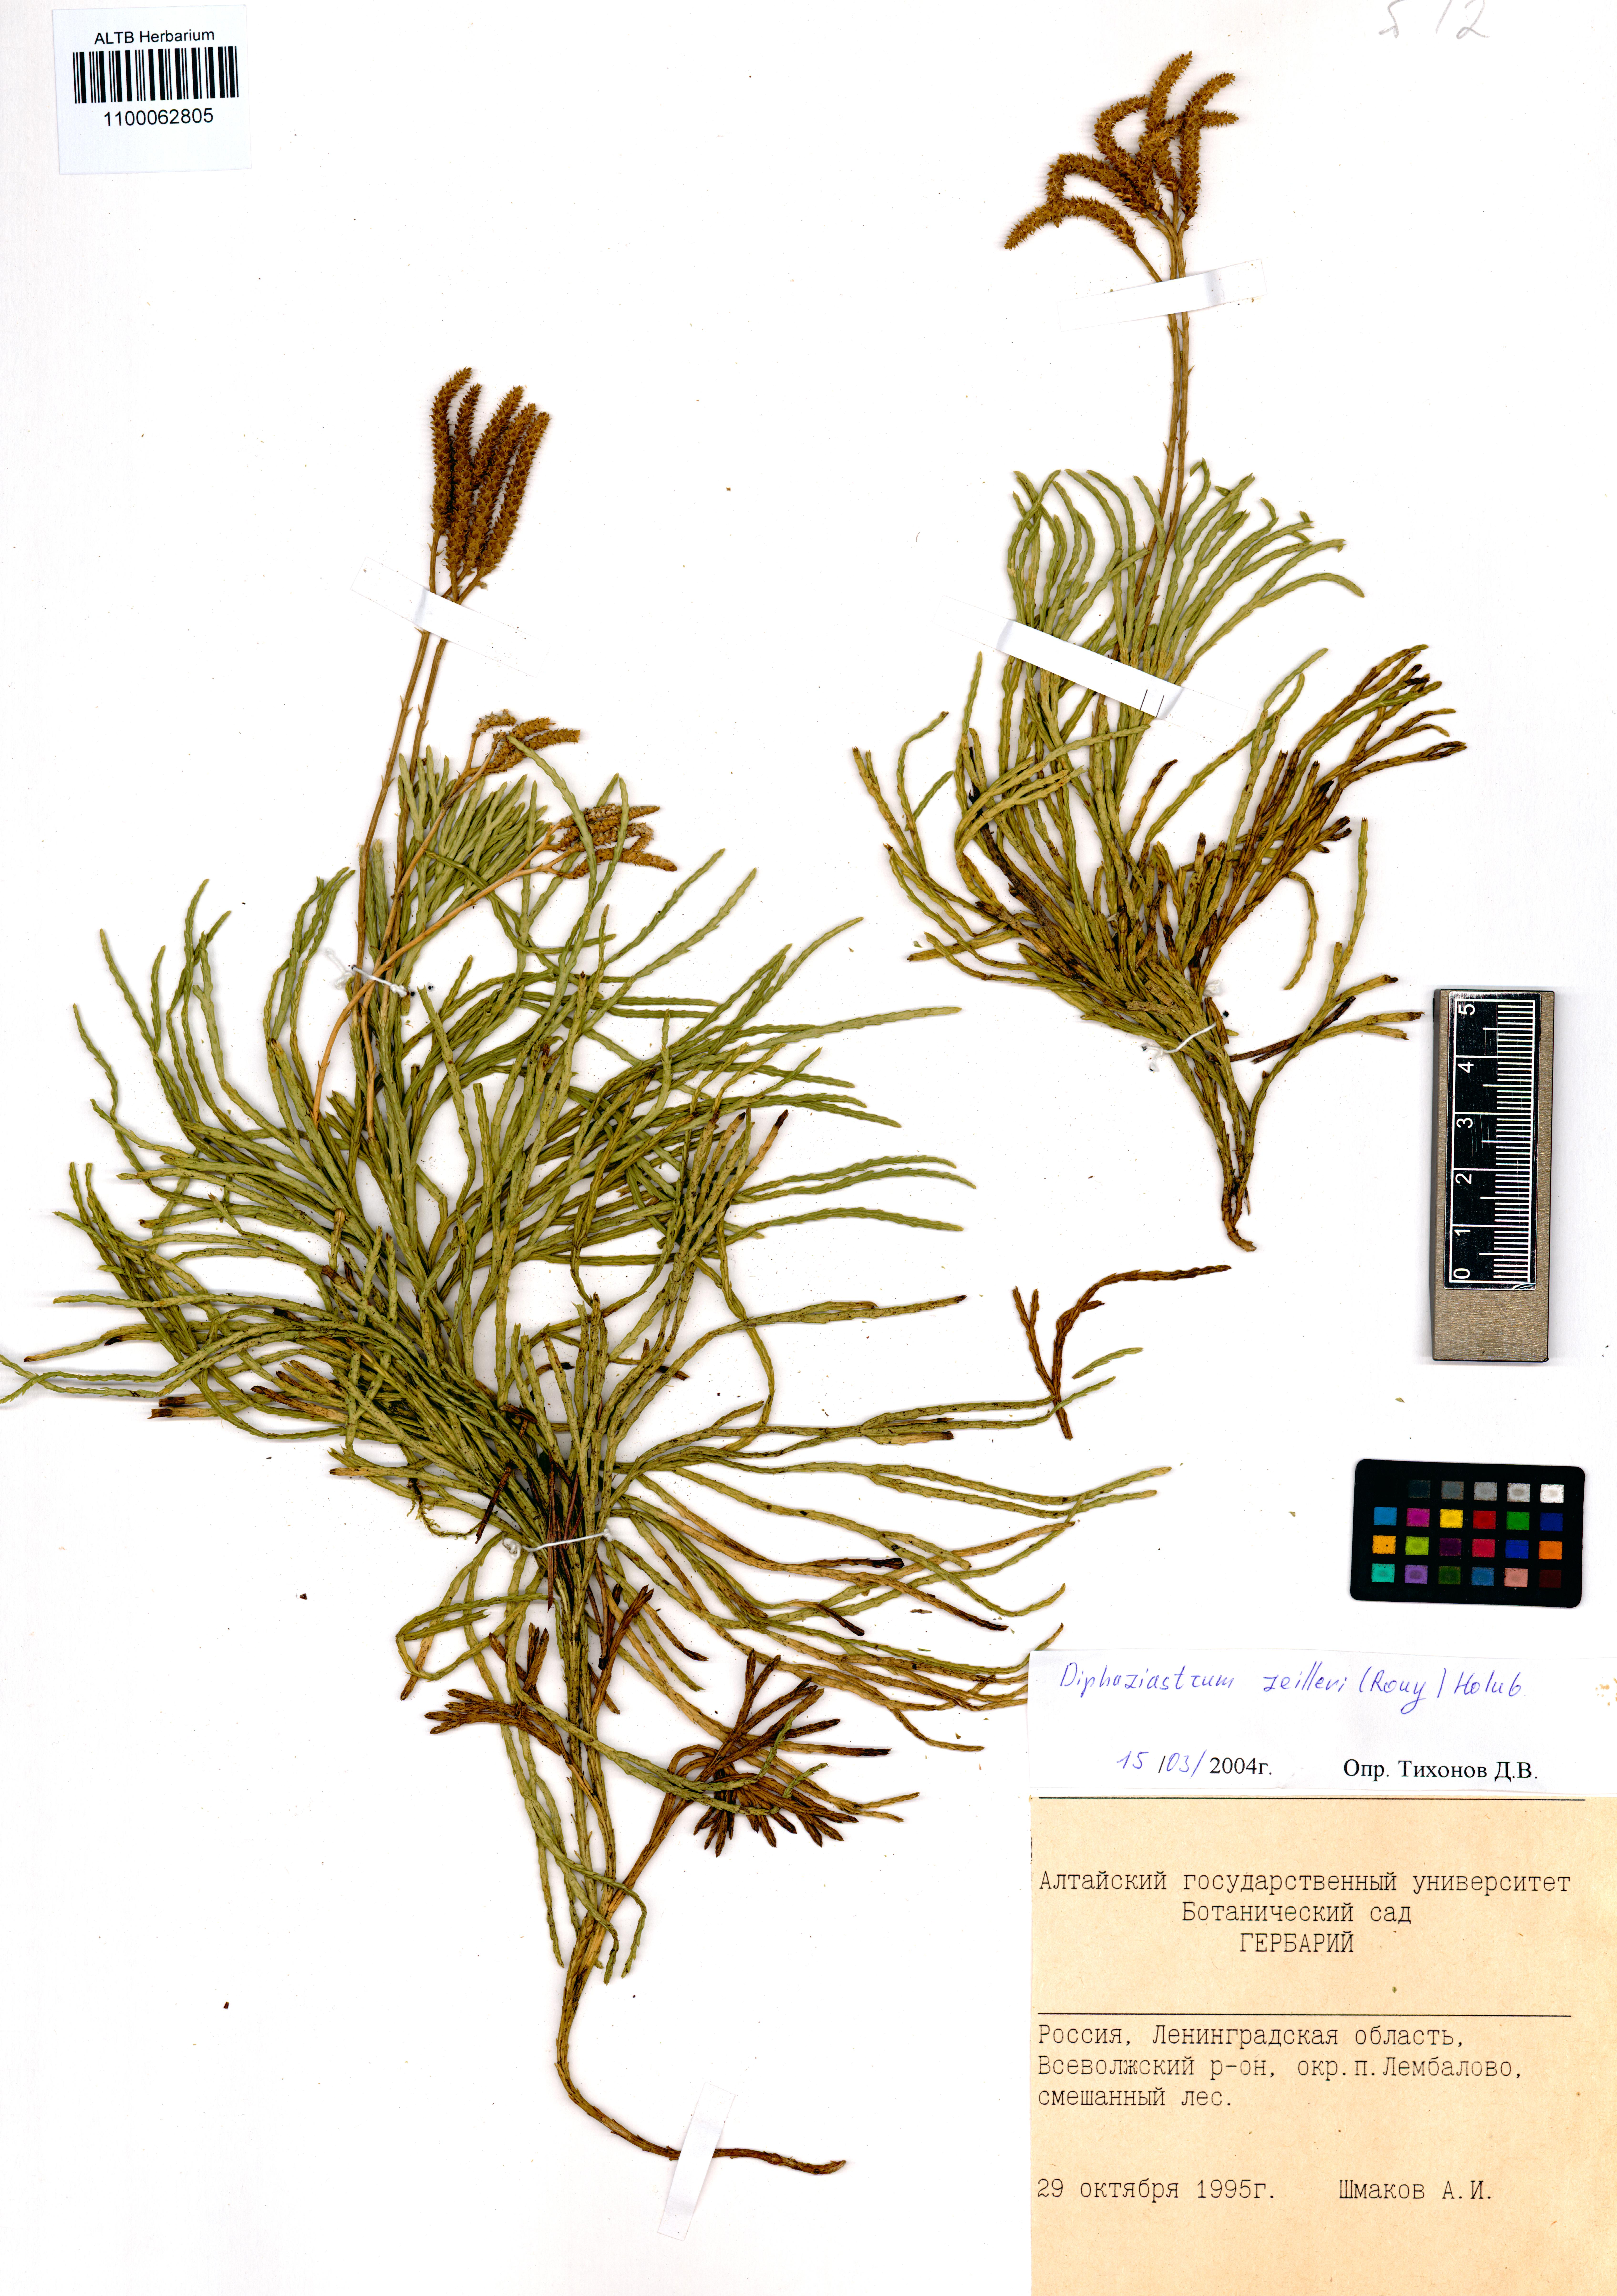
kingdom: Plantae
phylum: Tracheophyta
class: Lycopodiopsida
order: Lycopodiales
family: Lycopodiaceae
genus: Diphasiastrum
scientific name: Diphasiastrum zeilleri
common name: Zeiller's clubmoss
